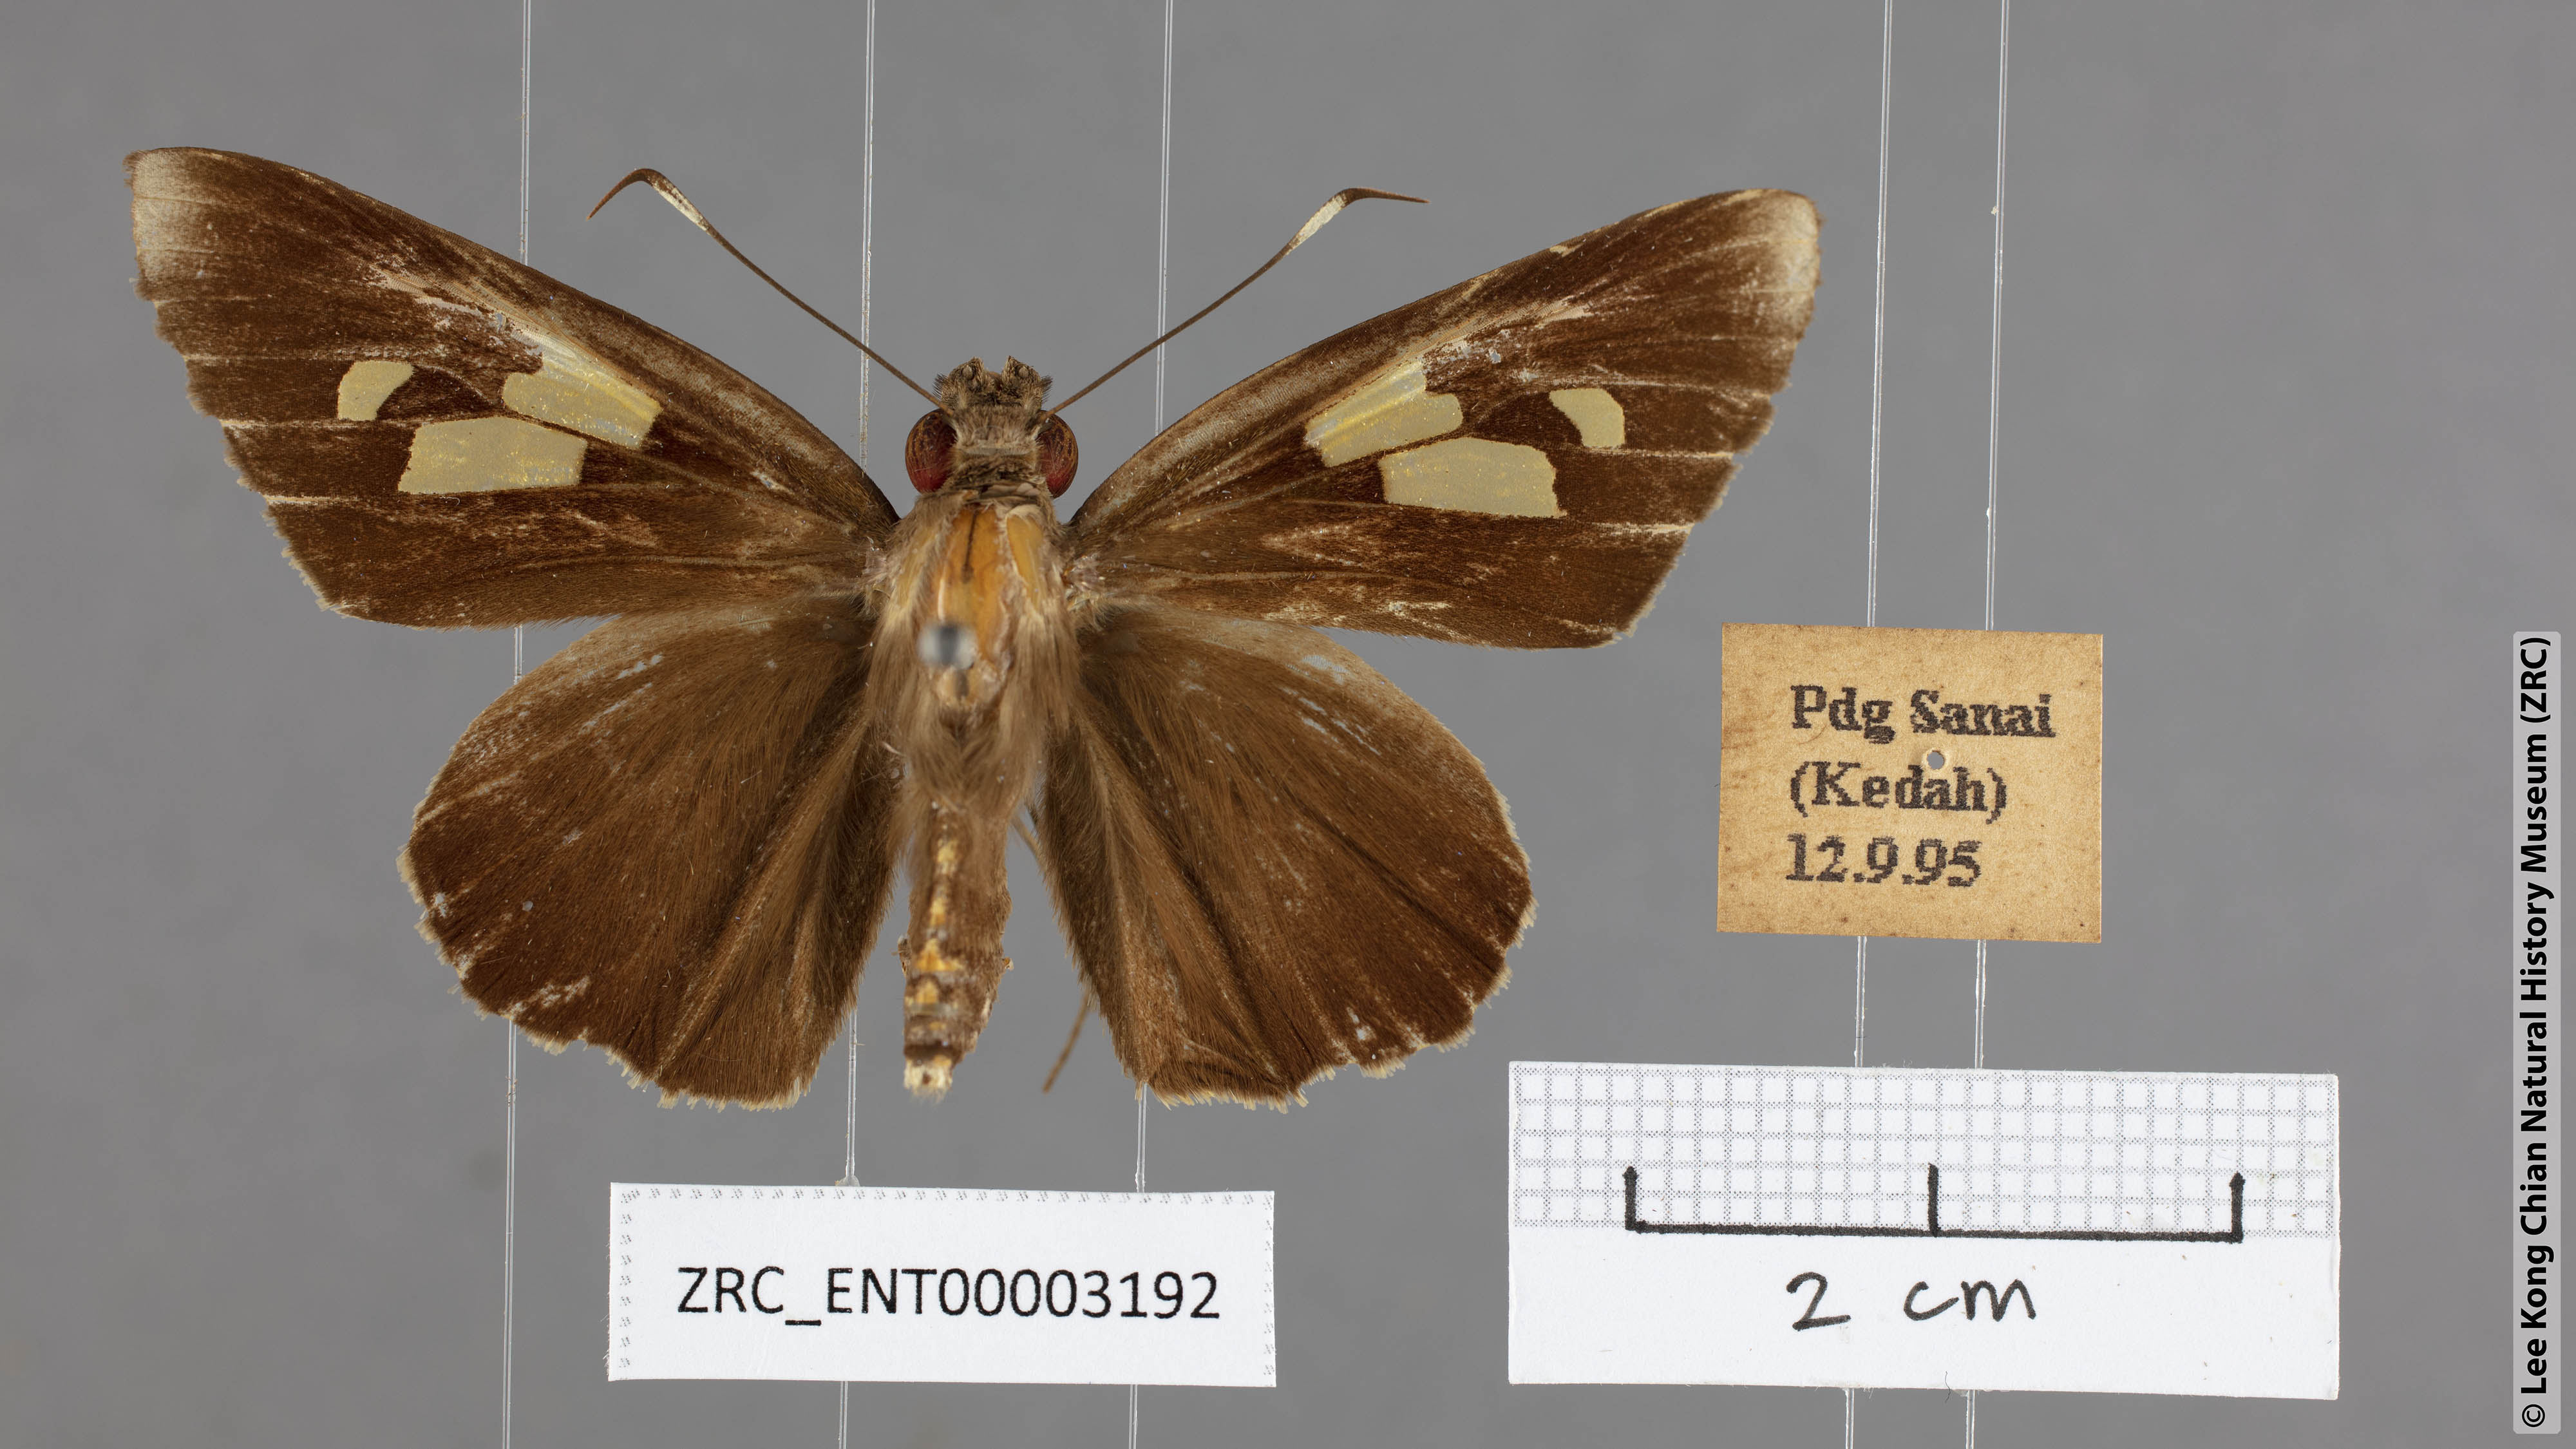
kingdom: Animalia
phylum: Arthropoda
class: Insecta
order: Lepidoptera
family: Hesperiidae
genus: Erionota
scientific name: Erionota
